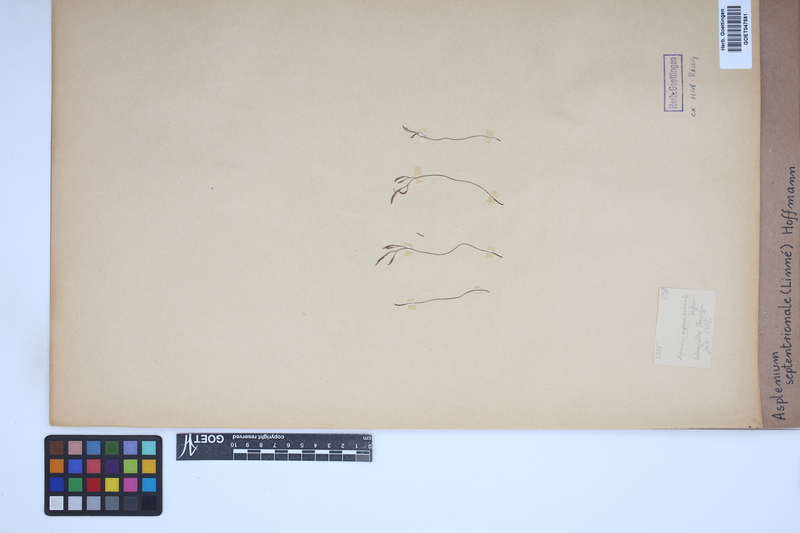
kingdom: Plantae
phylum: Tracheophyta
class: Polypodiopsida
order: Polypodiales
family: Aspleniaceae
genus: Asplenium
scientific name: Asplenium septentrionale
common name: Forked spleenwort
